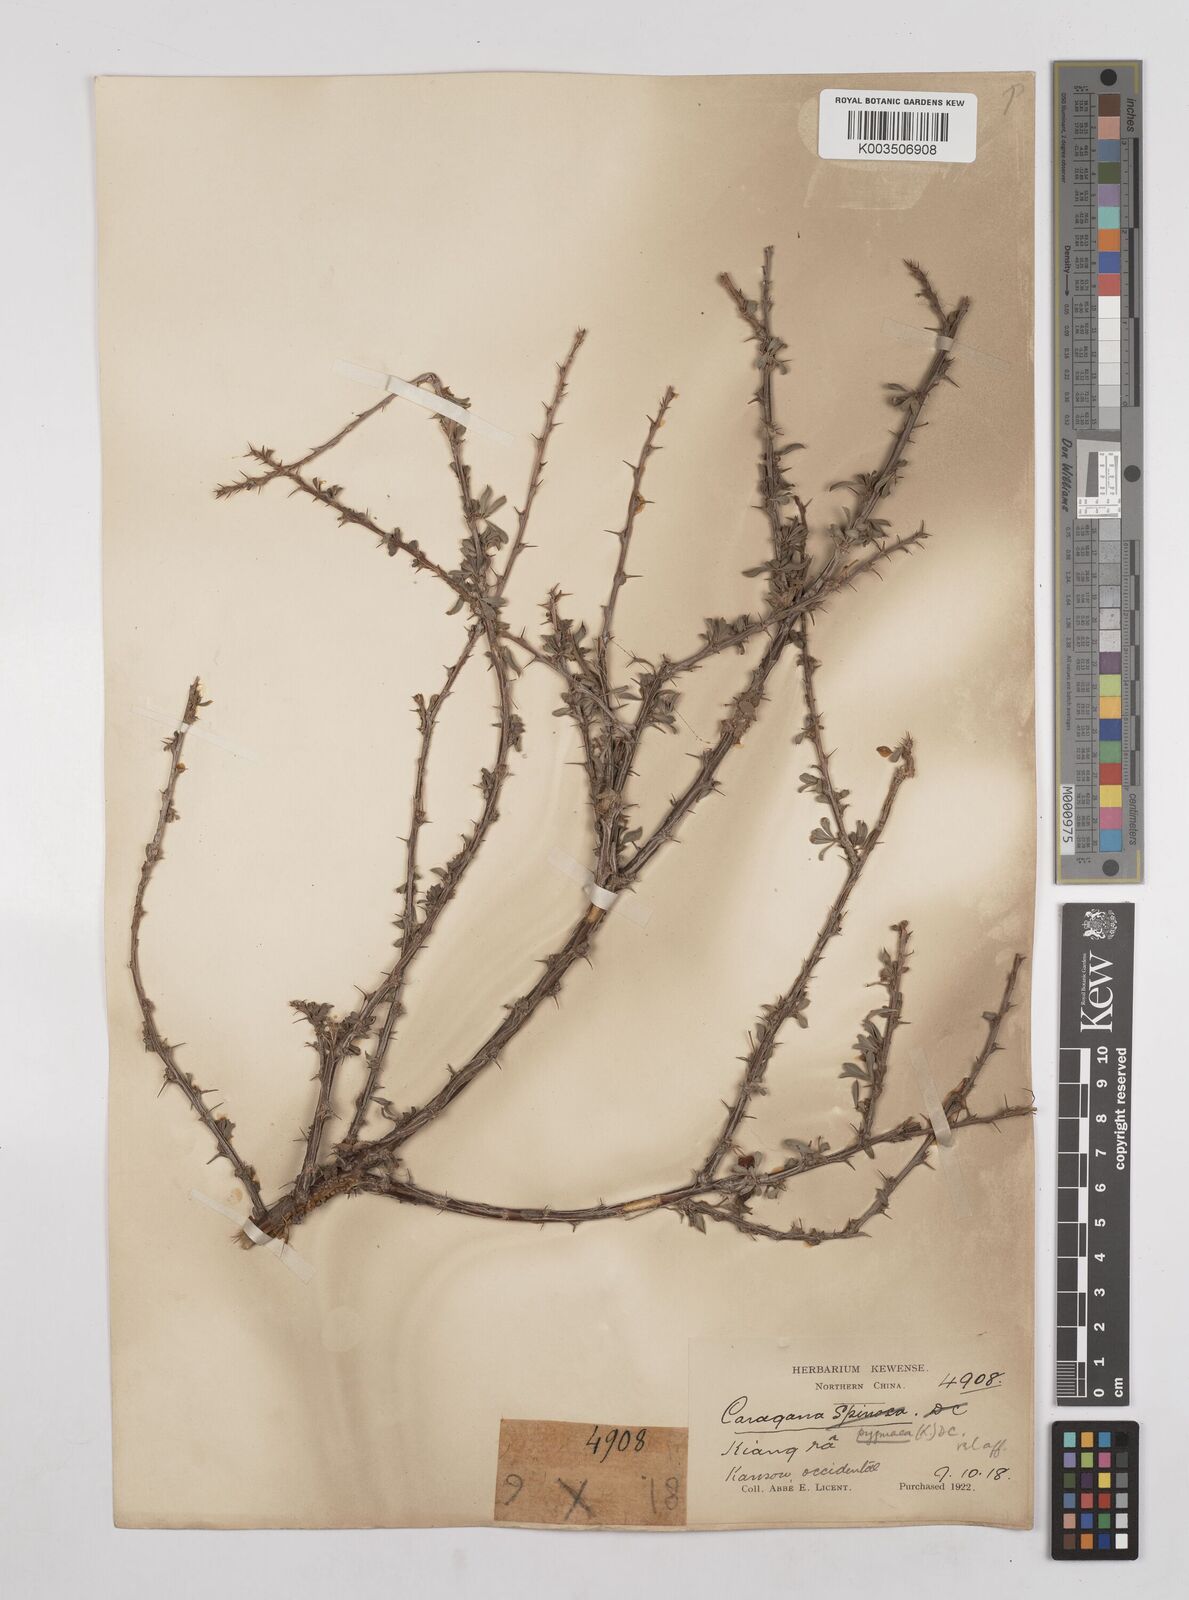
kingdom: Plantae
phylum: Tracheophyta
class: Magnoliopsida
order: Fabales
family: Fabaceae
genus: Caragana
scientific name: Caragana pygmaea
